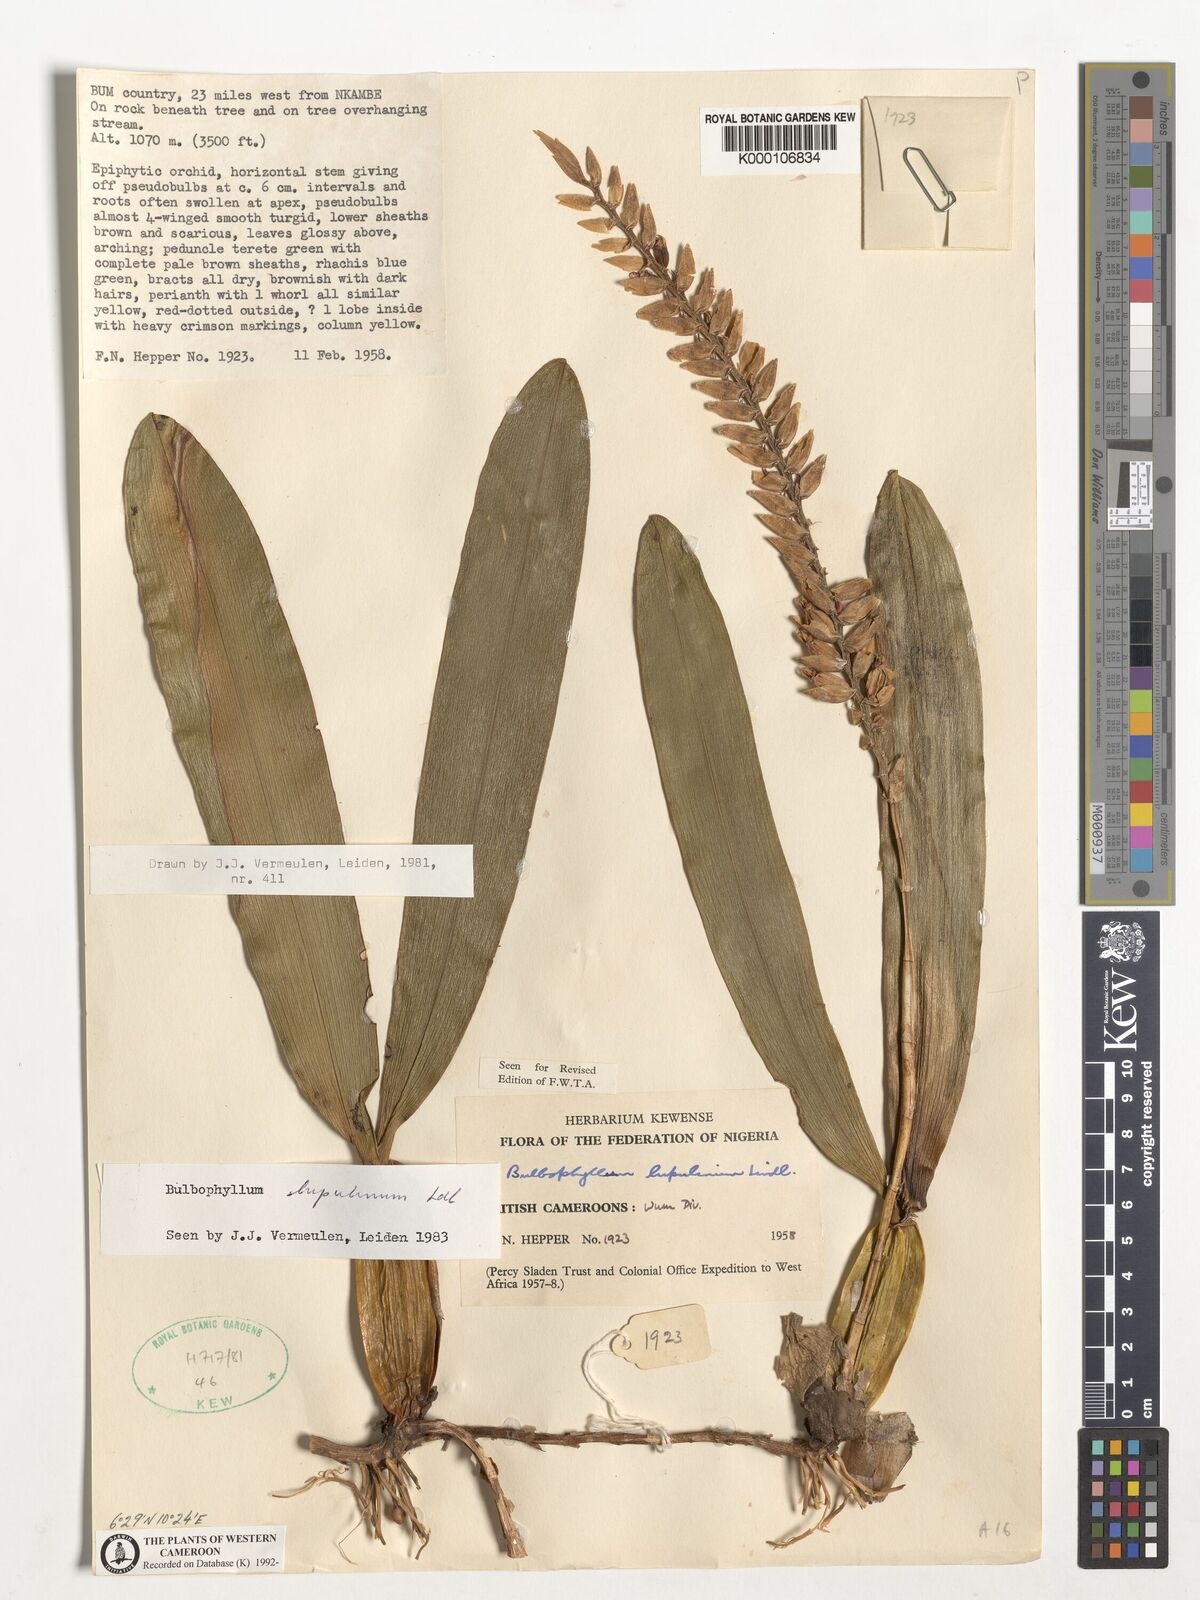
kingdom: Plantae
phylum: Tracheophyta
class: Liliopsida
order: Asparagales
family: Orchidaceae
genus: Bulbophyllum
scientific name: Bulbophyllum lupulinum
